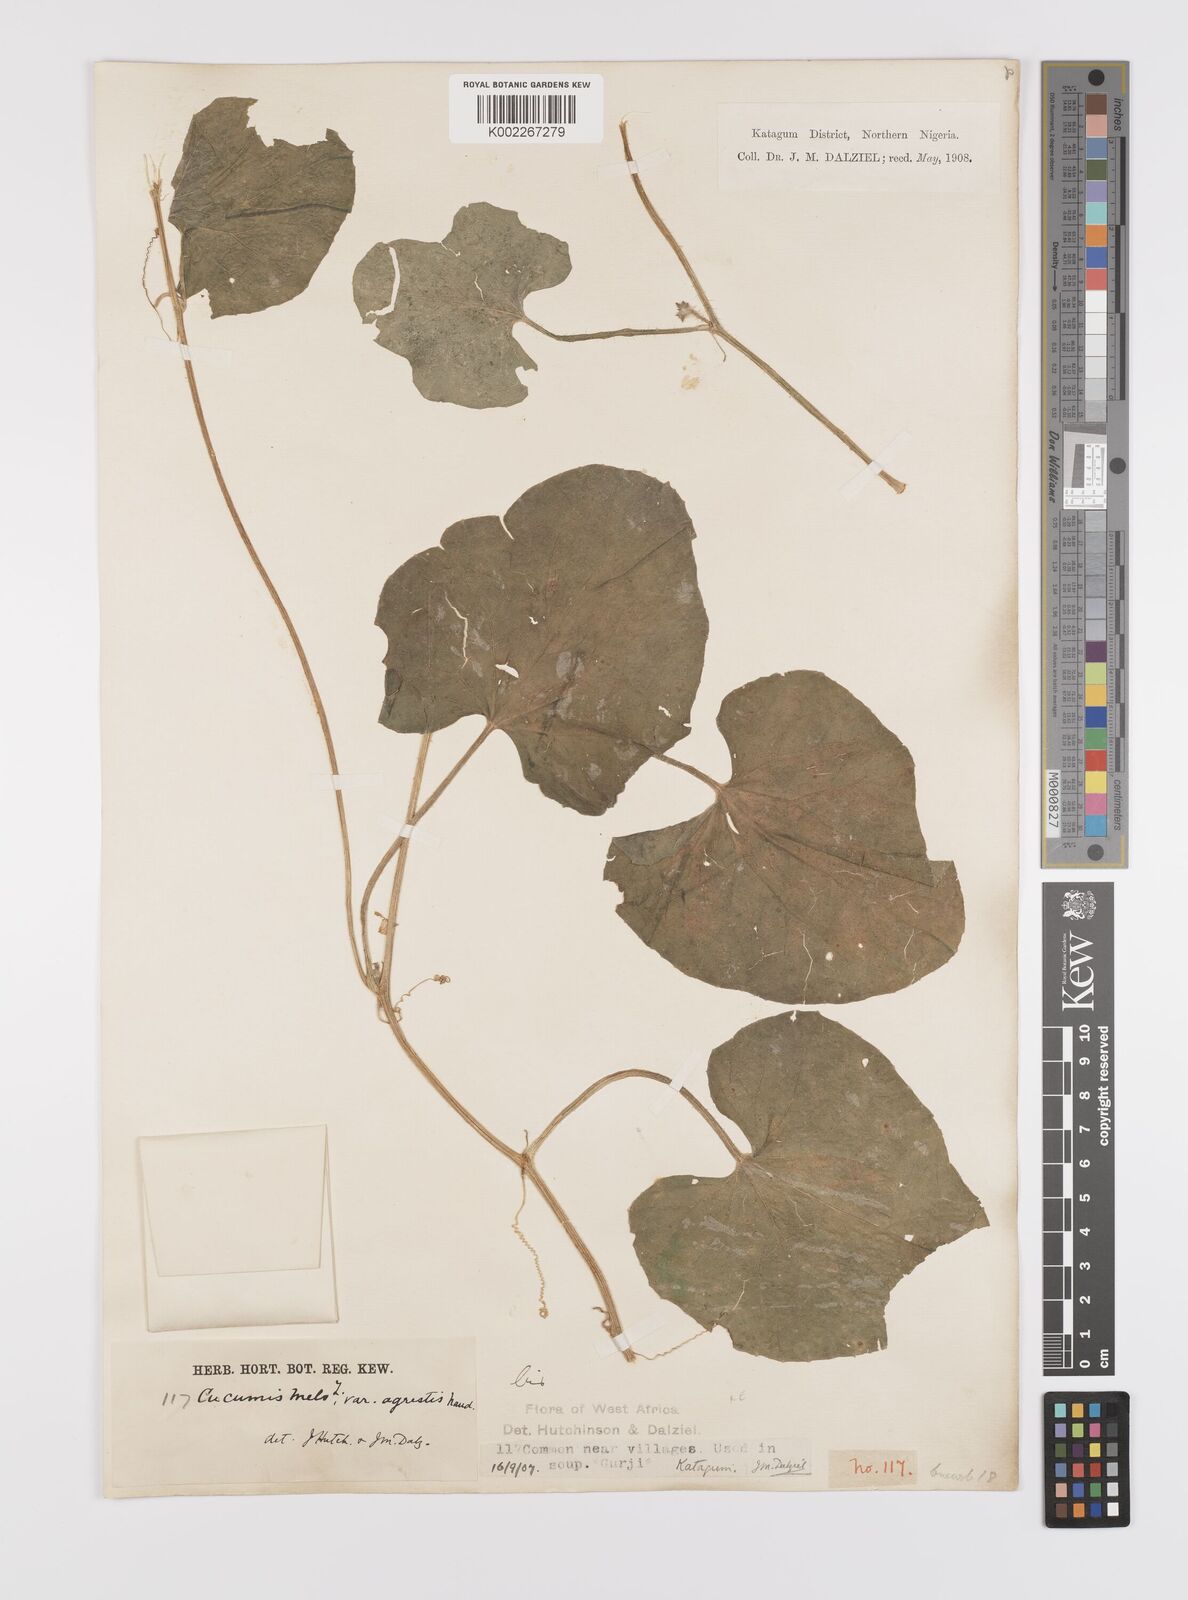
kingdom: Plantae
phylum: Tracheophyta
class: Magnoliopsida
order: Cucurbitales
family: Cucurbitaceae
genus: Cucumis
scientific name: Cucumis melo
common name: Melon
